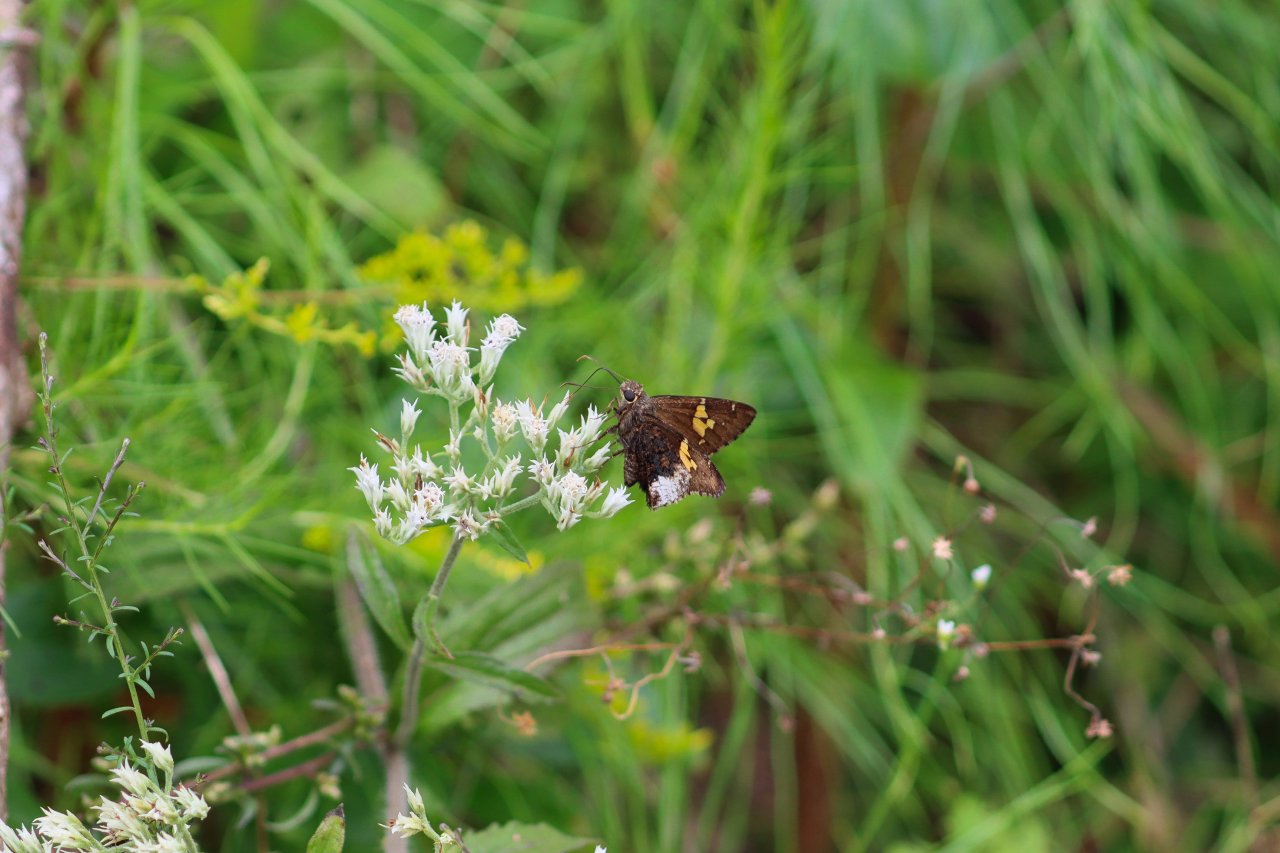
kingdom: Animalia
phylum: Arthropoda
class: Insecta
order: Lepidoptera
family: Hesperiidae
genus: Achalarus
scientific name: Achalarus lyciades
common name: Hoary Edge
